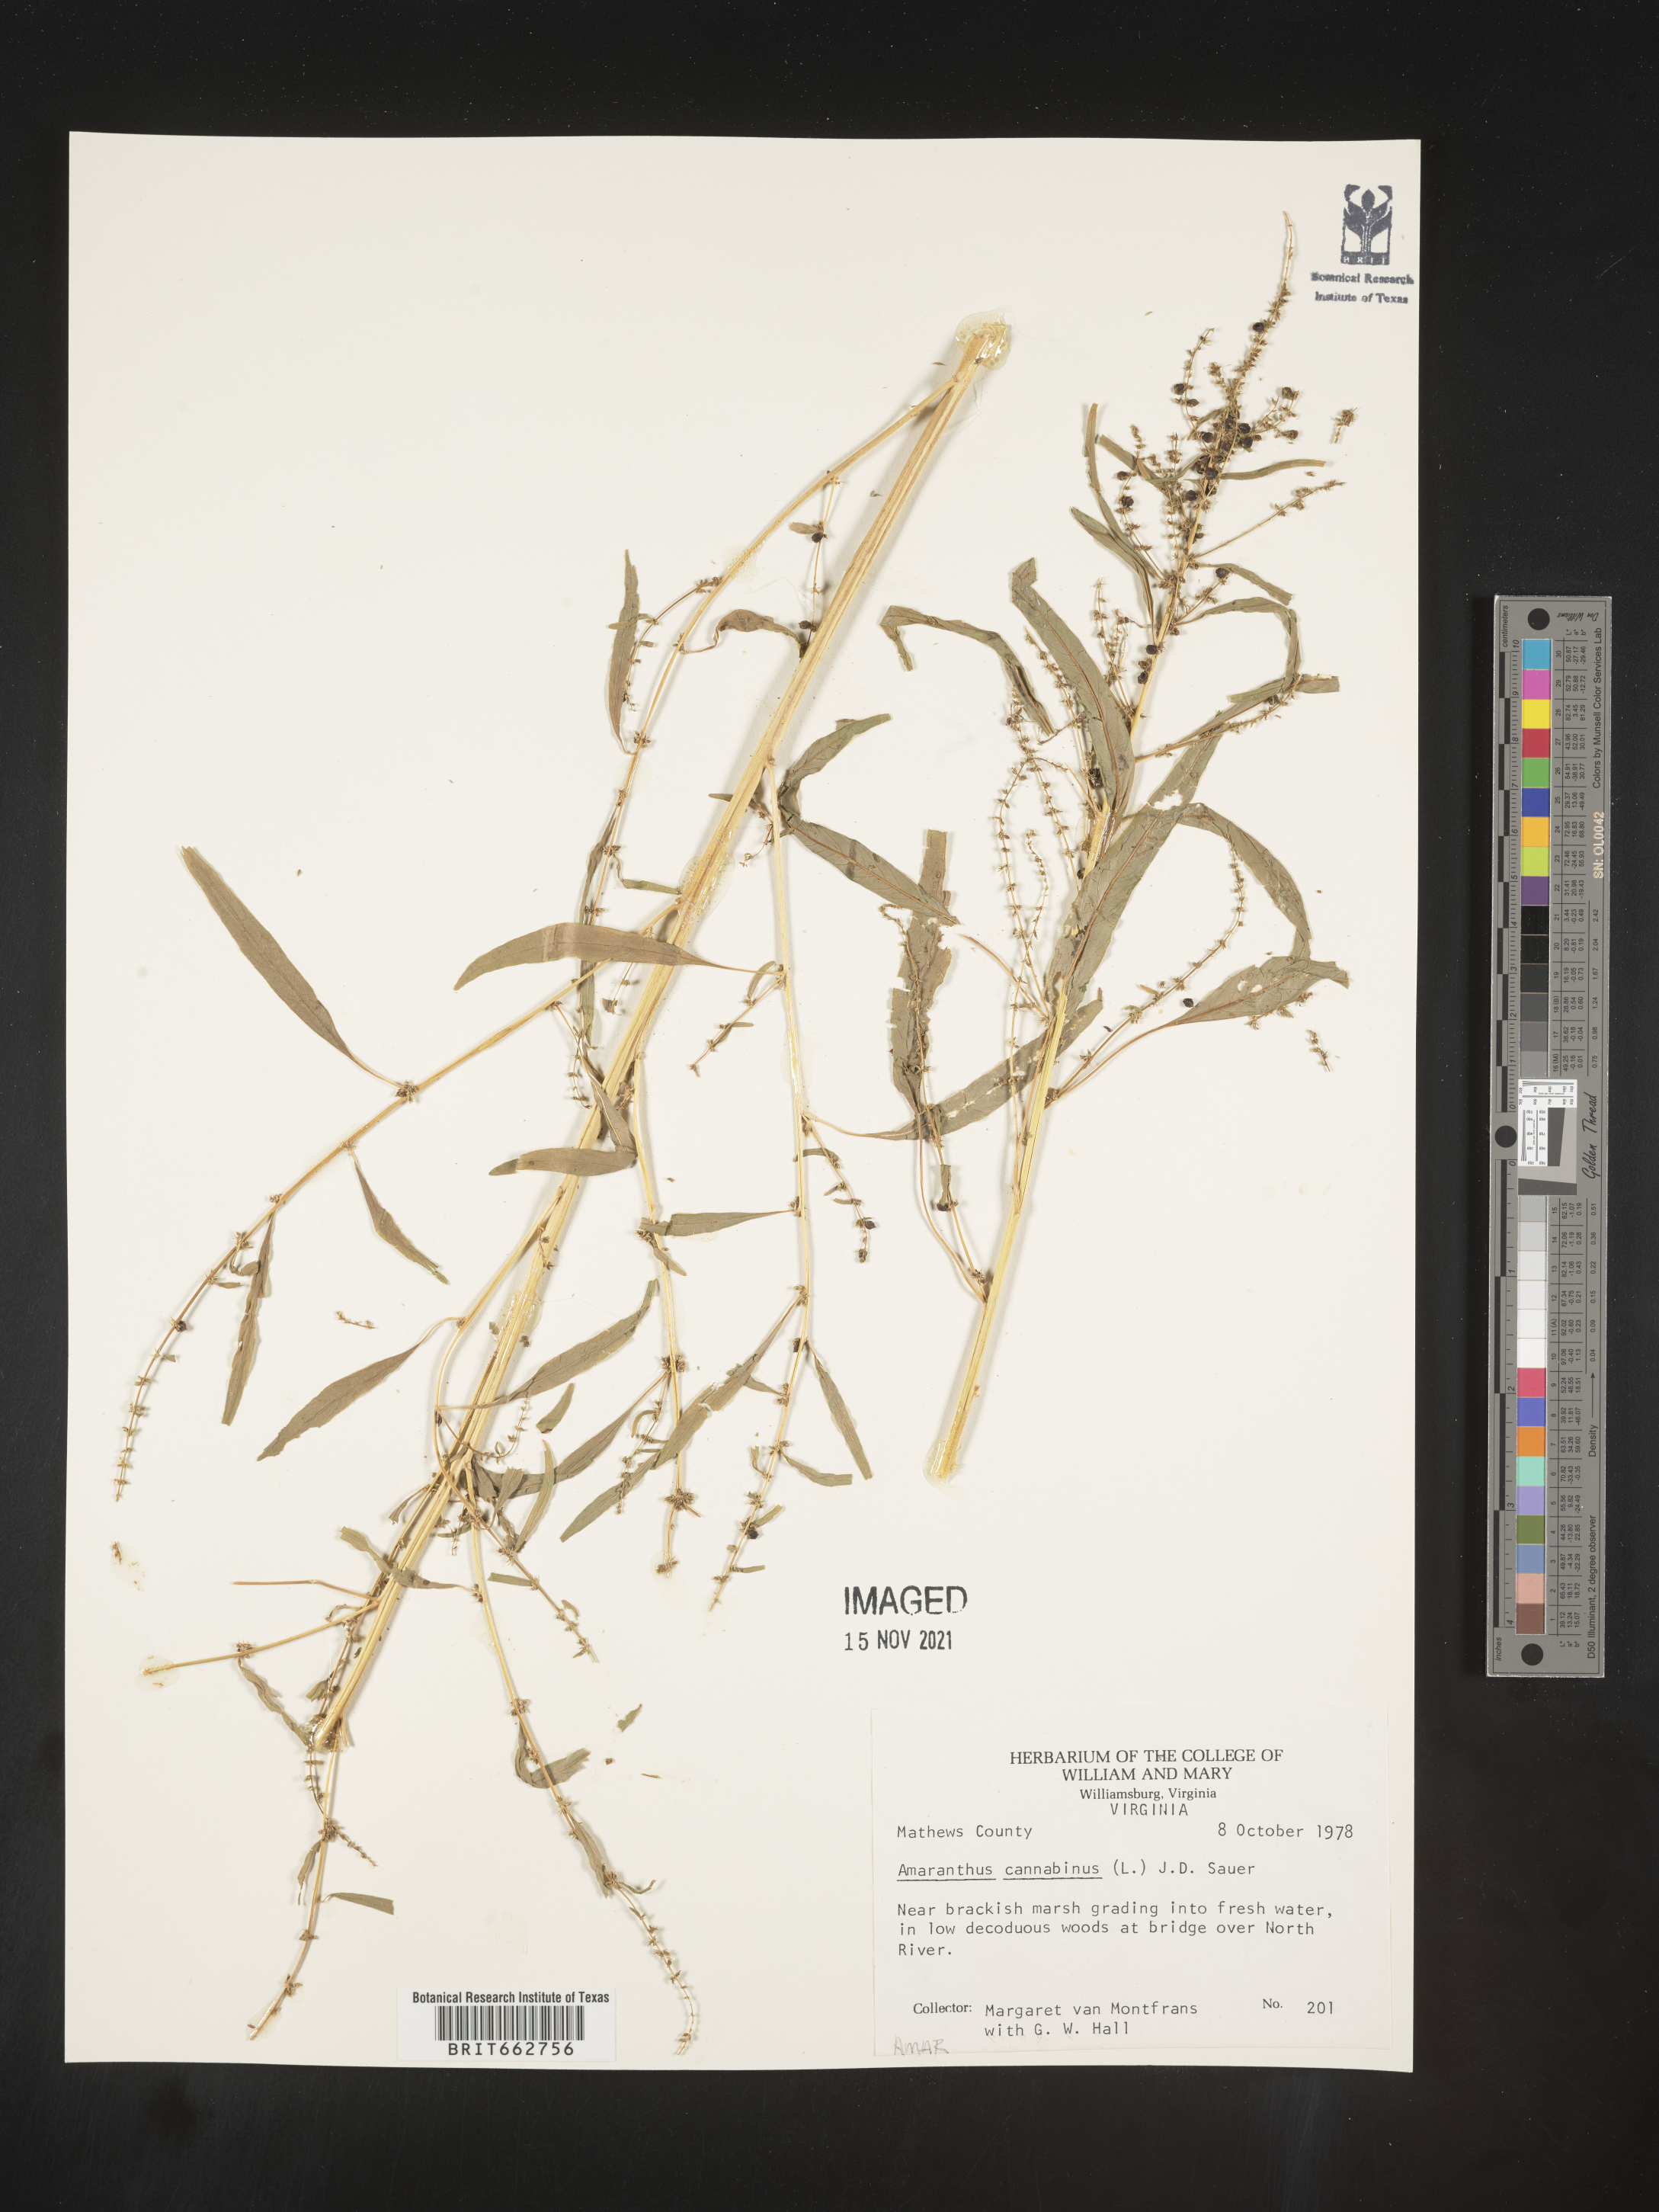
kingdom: Plantae
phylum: Tracheophyta
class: Magnoliopsida
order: Caryophyllales
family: Amaranthaceae
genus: Amaranthus
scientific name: Amaranthus cannabinus
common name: Salt-marsh water-hemp
